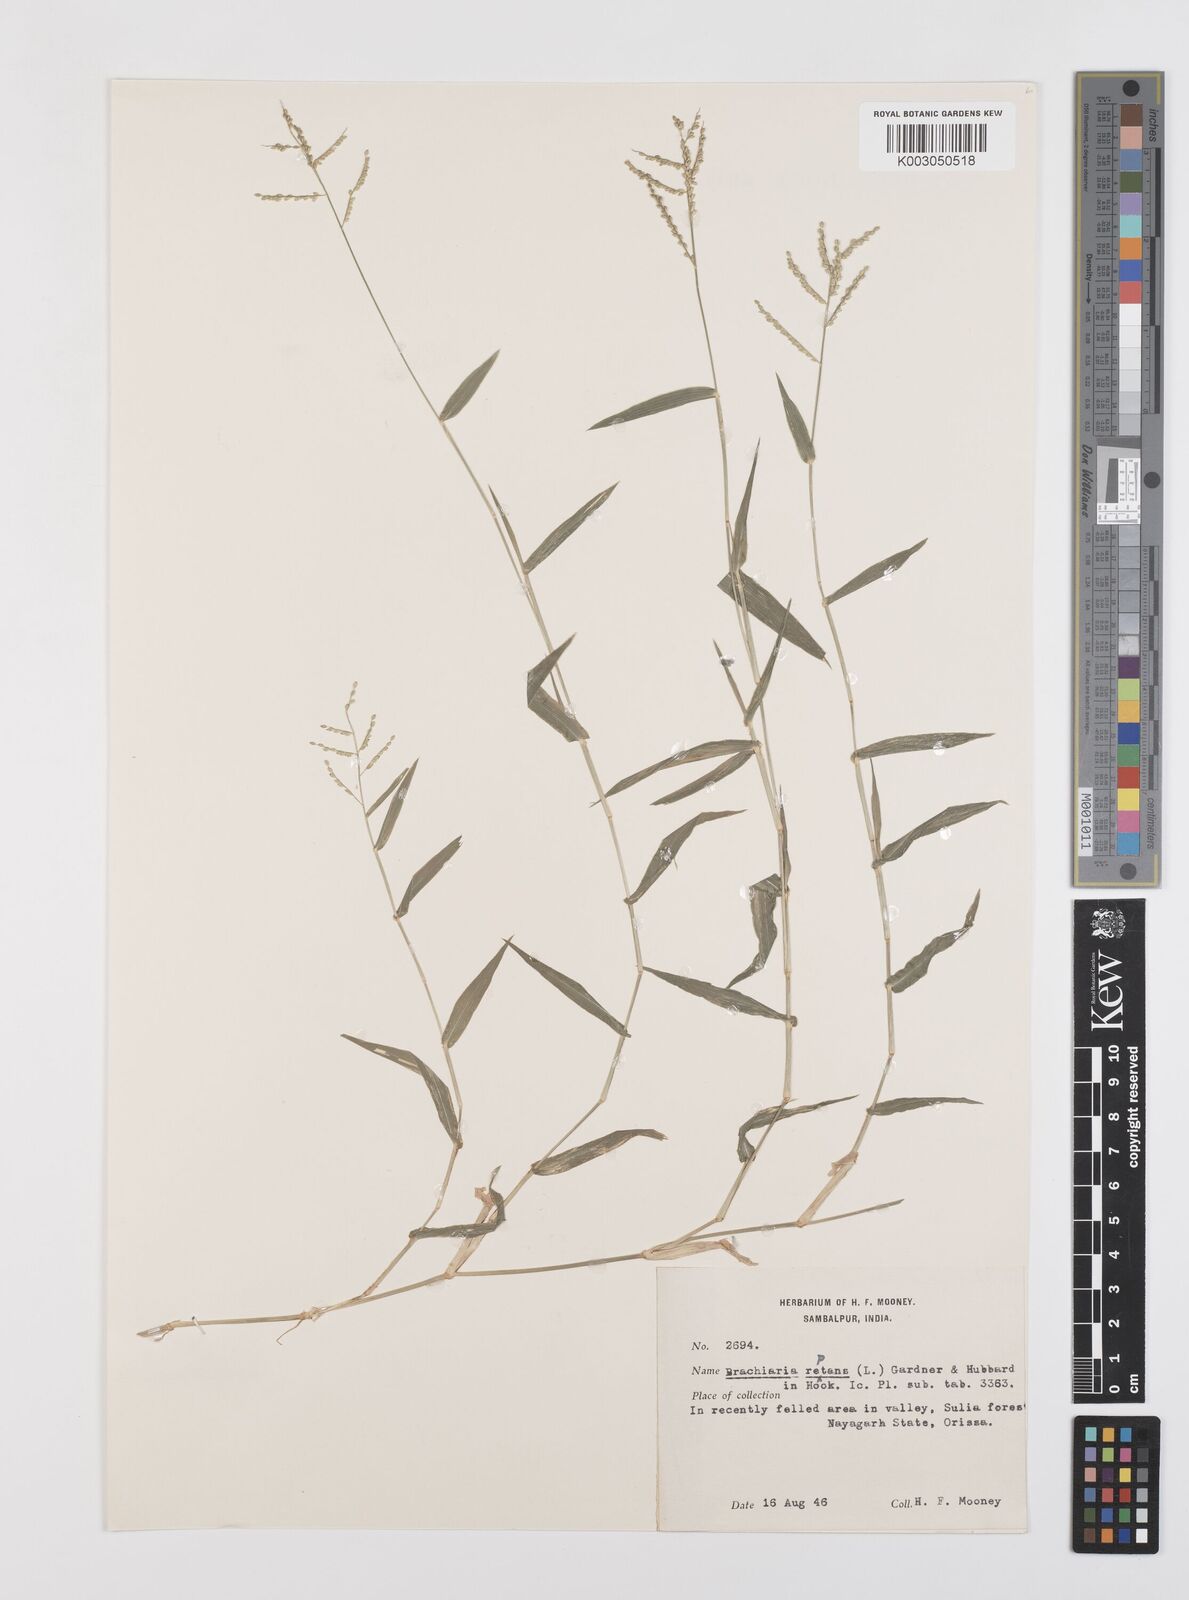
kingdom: Plantae
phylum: Tracheophyta
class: Liliopsida
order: Poales
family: Poaceae
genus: Urochloa
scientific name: Urochloa reptans
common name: Sprawling signalgrass
